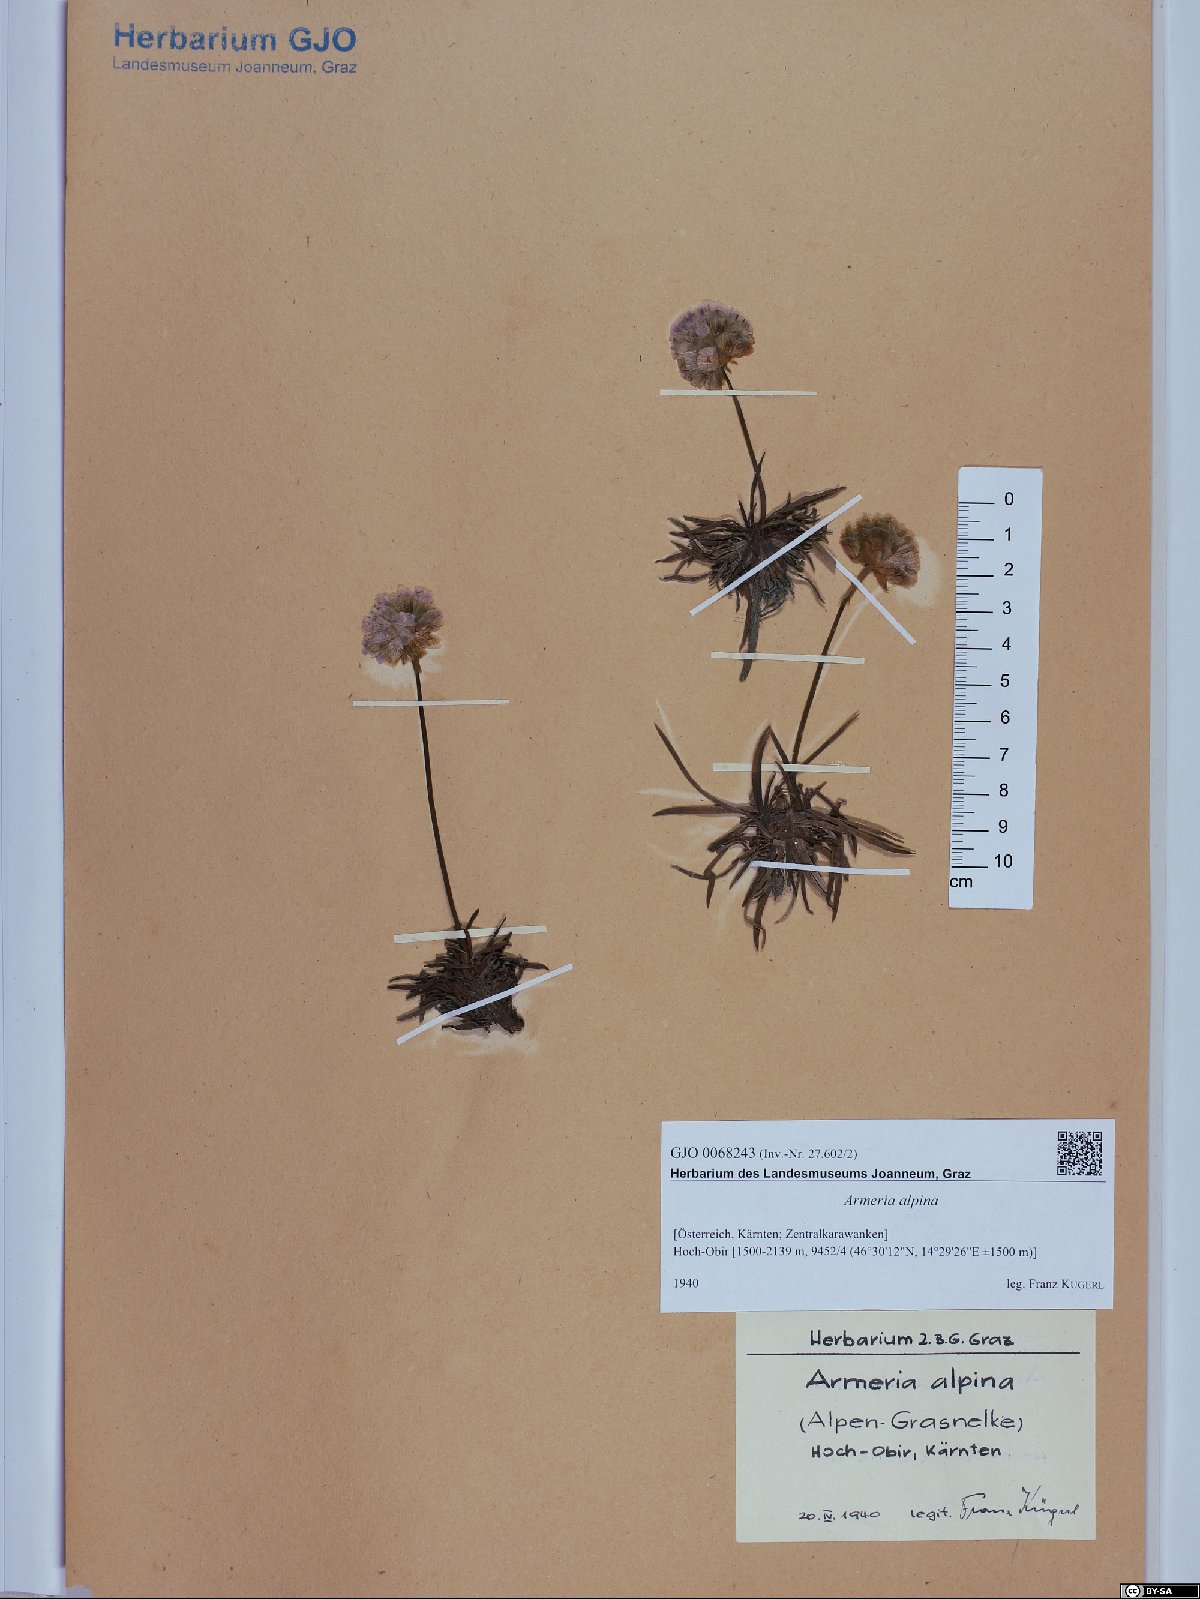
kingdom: Plantae
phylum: Tracheophyta
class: Magnoliopsida
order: Caryophyllales
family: Plumbaginaceae
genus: Armeria
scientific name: Armeria alpina
